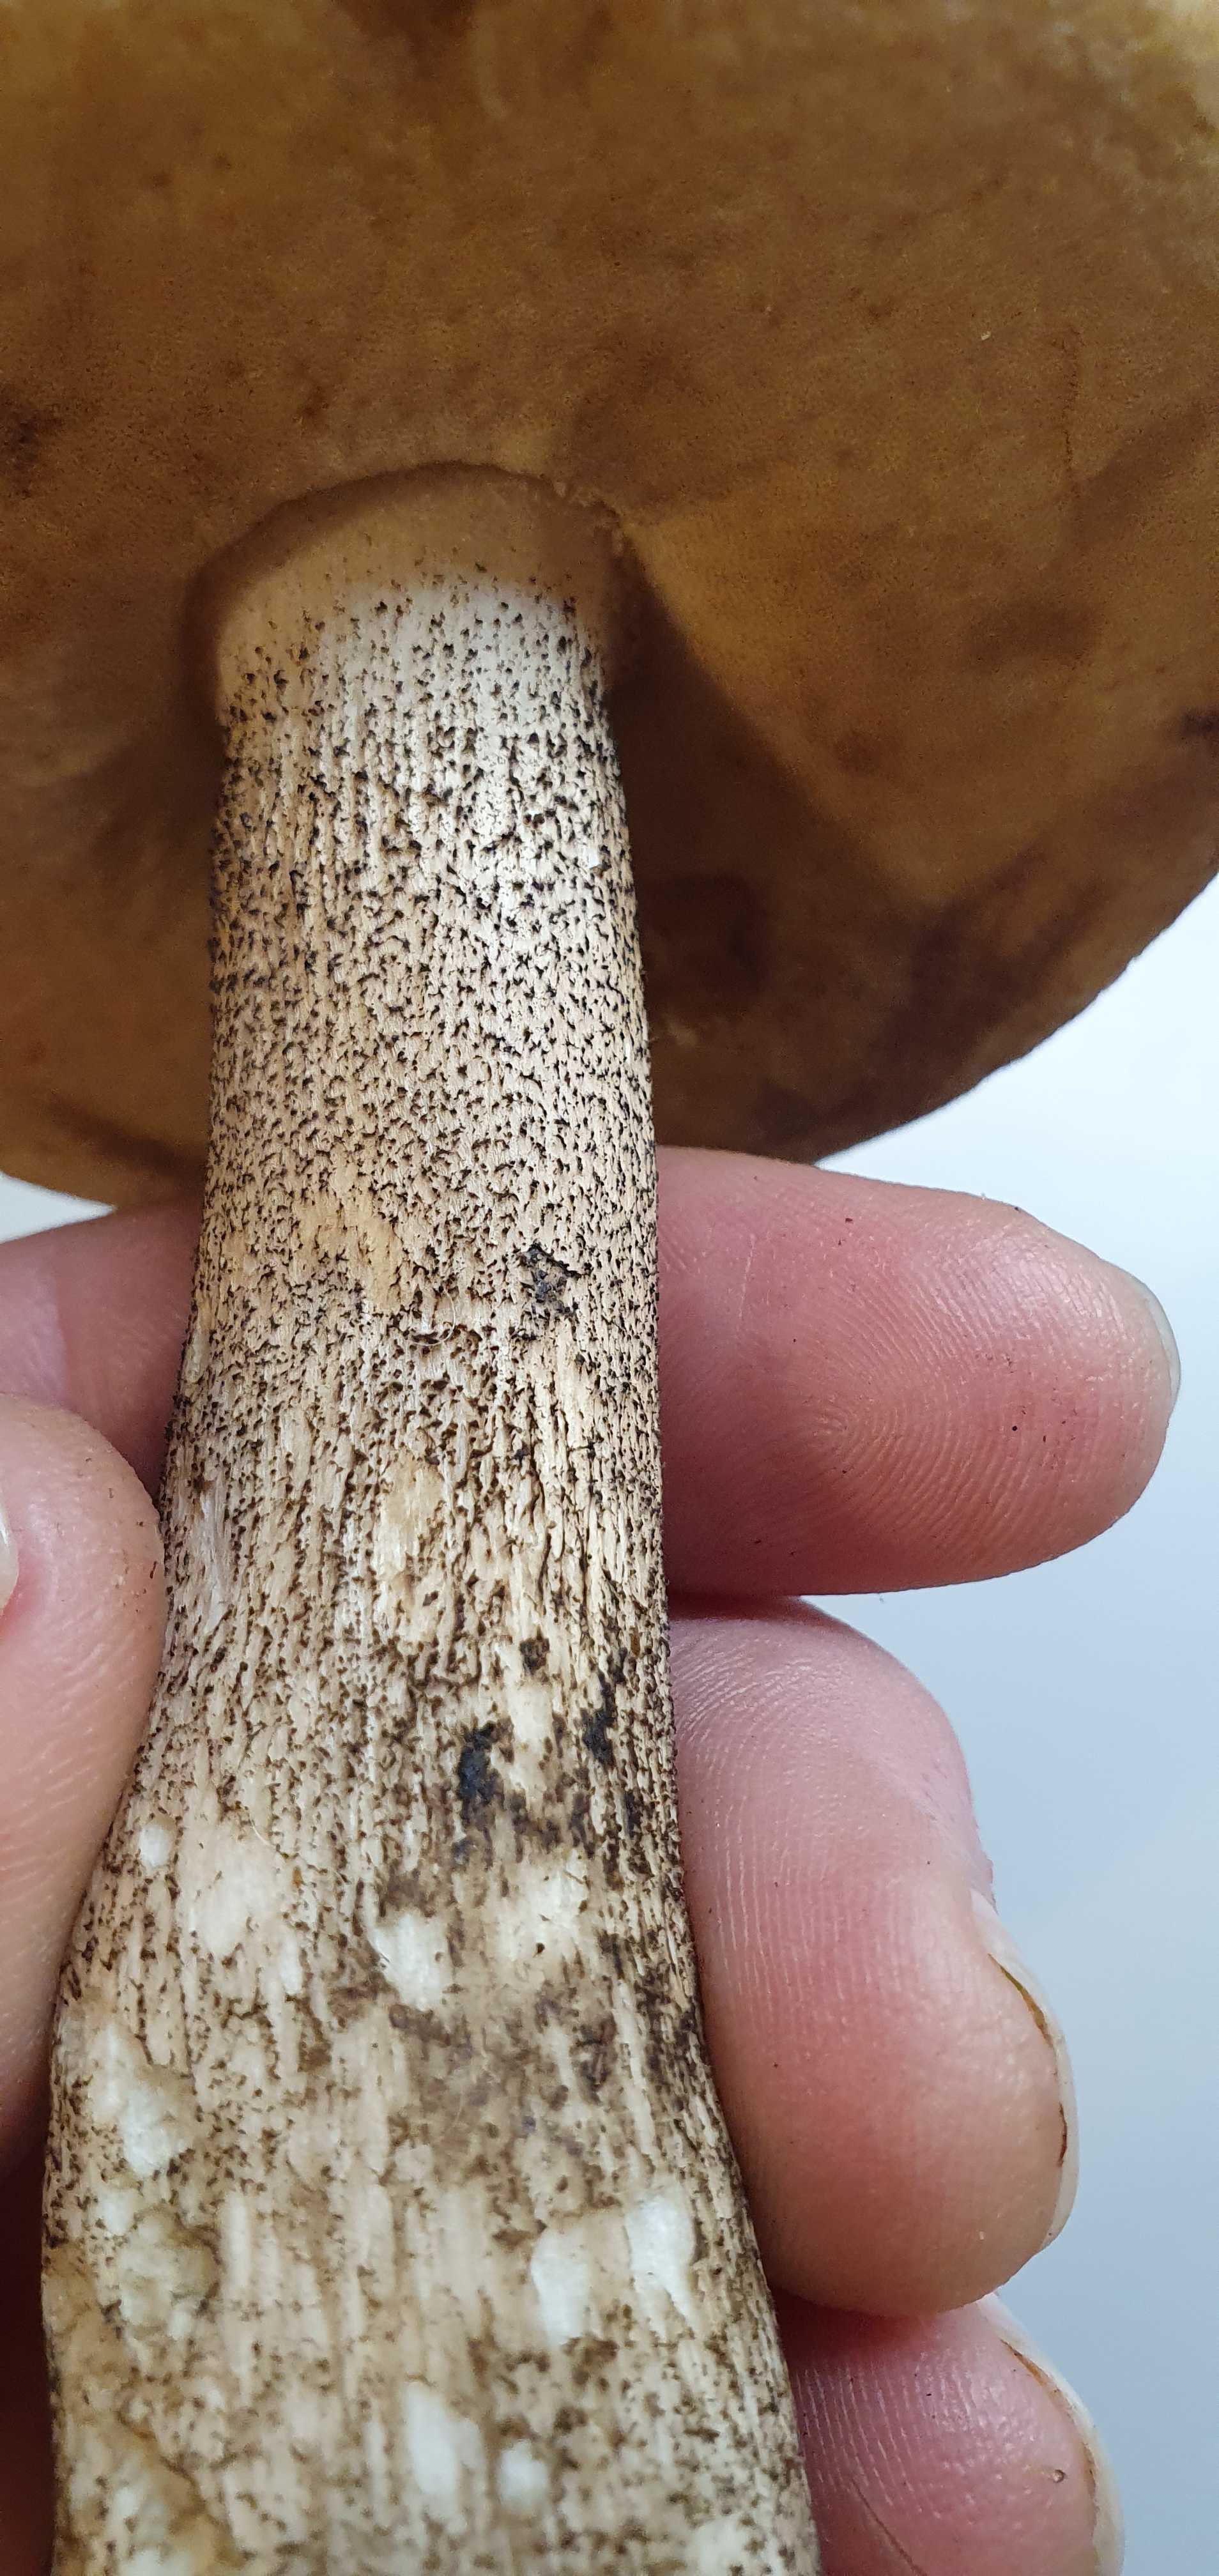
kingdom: Fungi
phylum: Basidiomycota
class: Agaricomycetes
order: Boletales
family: Boletaceae
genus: Leccinum
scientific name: Leccinum versipelle
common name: orange skælrørhat
